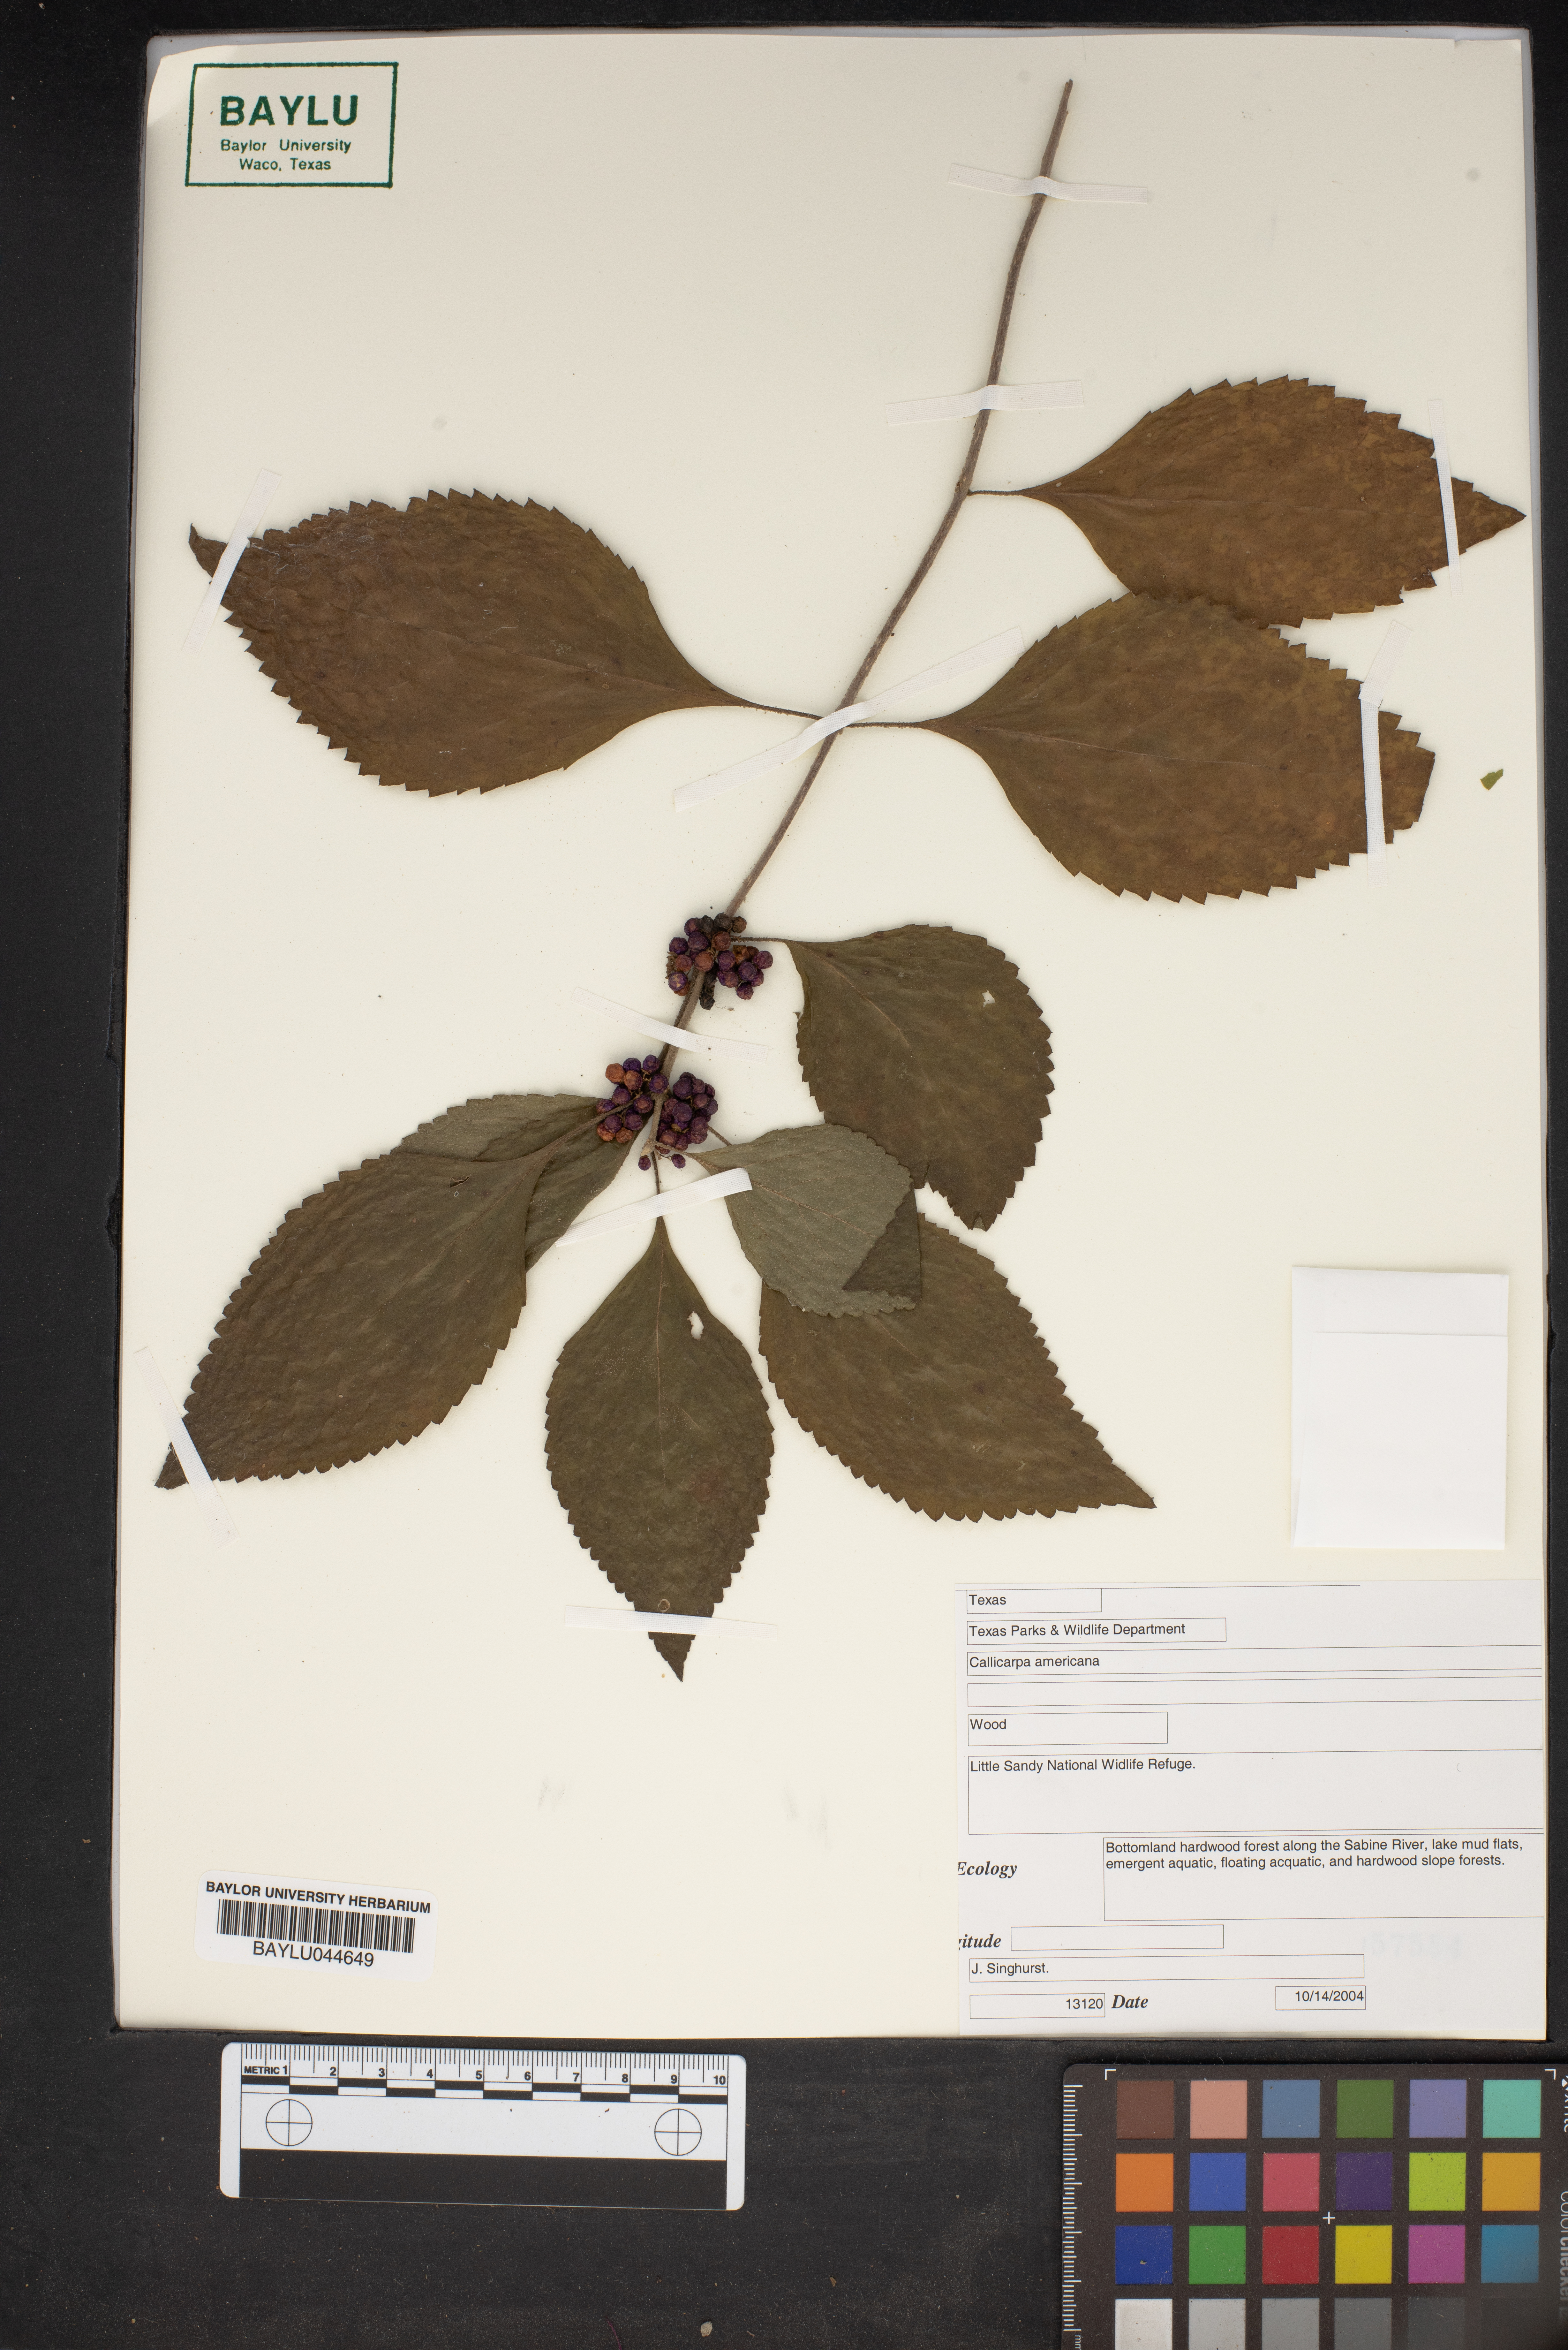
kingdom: Plantae
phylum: Tracheophyta
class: Magnoliopsida
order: Lamiales
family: Lamiaceae
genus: Callicarpa
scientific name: Callicarpa americana
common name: American beautyberry
